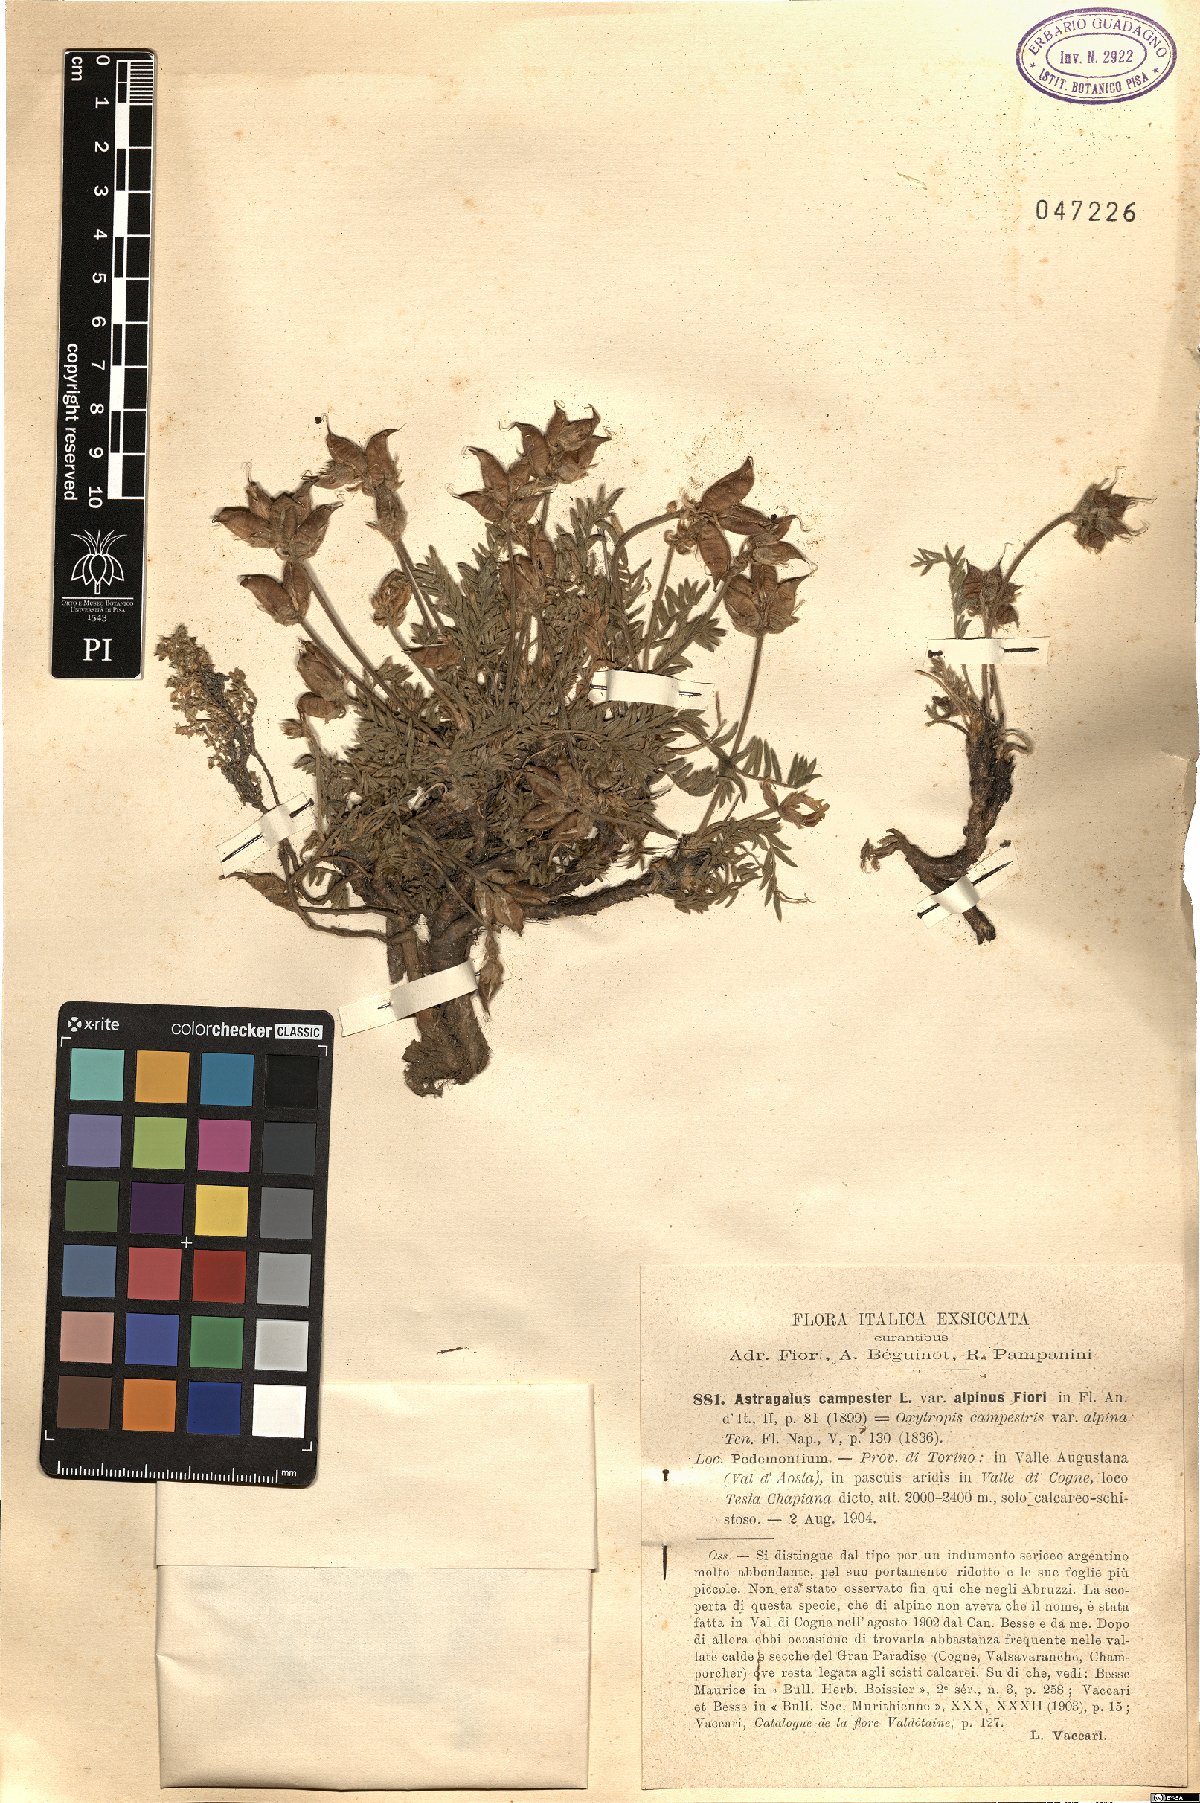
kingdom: Plantae
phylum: Tracheophyta
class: Magnoliopsida
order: Fabales
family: Fabaceae
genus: Oxytropis
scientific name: Oxytropis campestris
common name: Field locoweed
